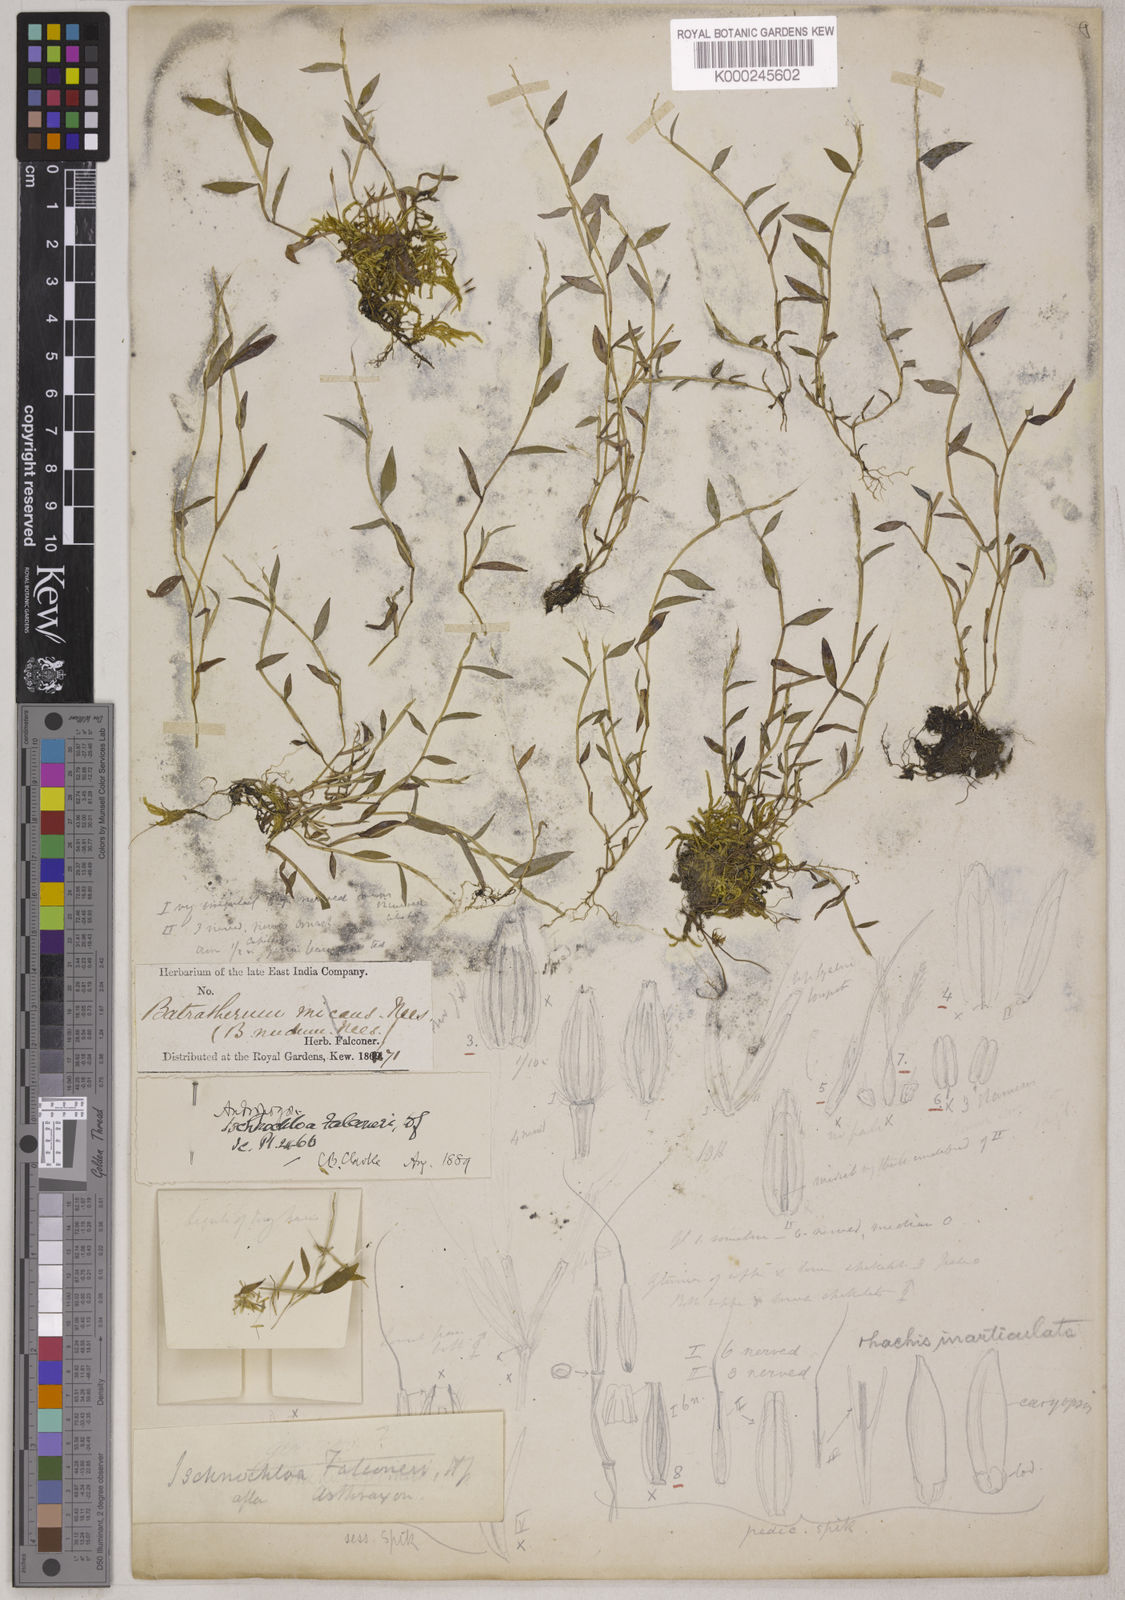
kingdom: Plantae
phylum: Tracheophyta
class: Liliopsida
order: Poales
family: Poaceae
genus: Microstegium
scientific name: Microstegium falconeri
